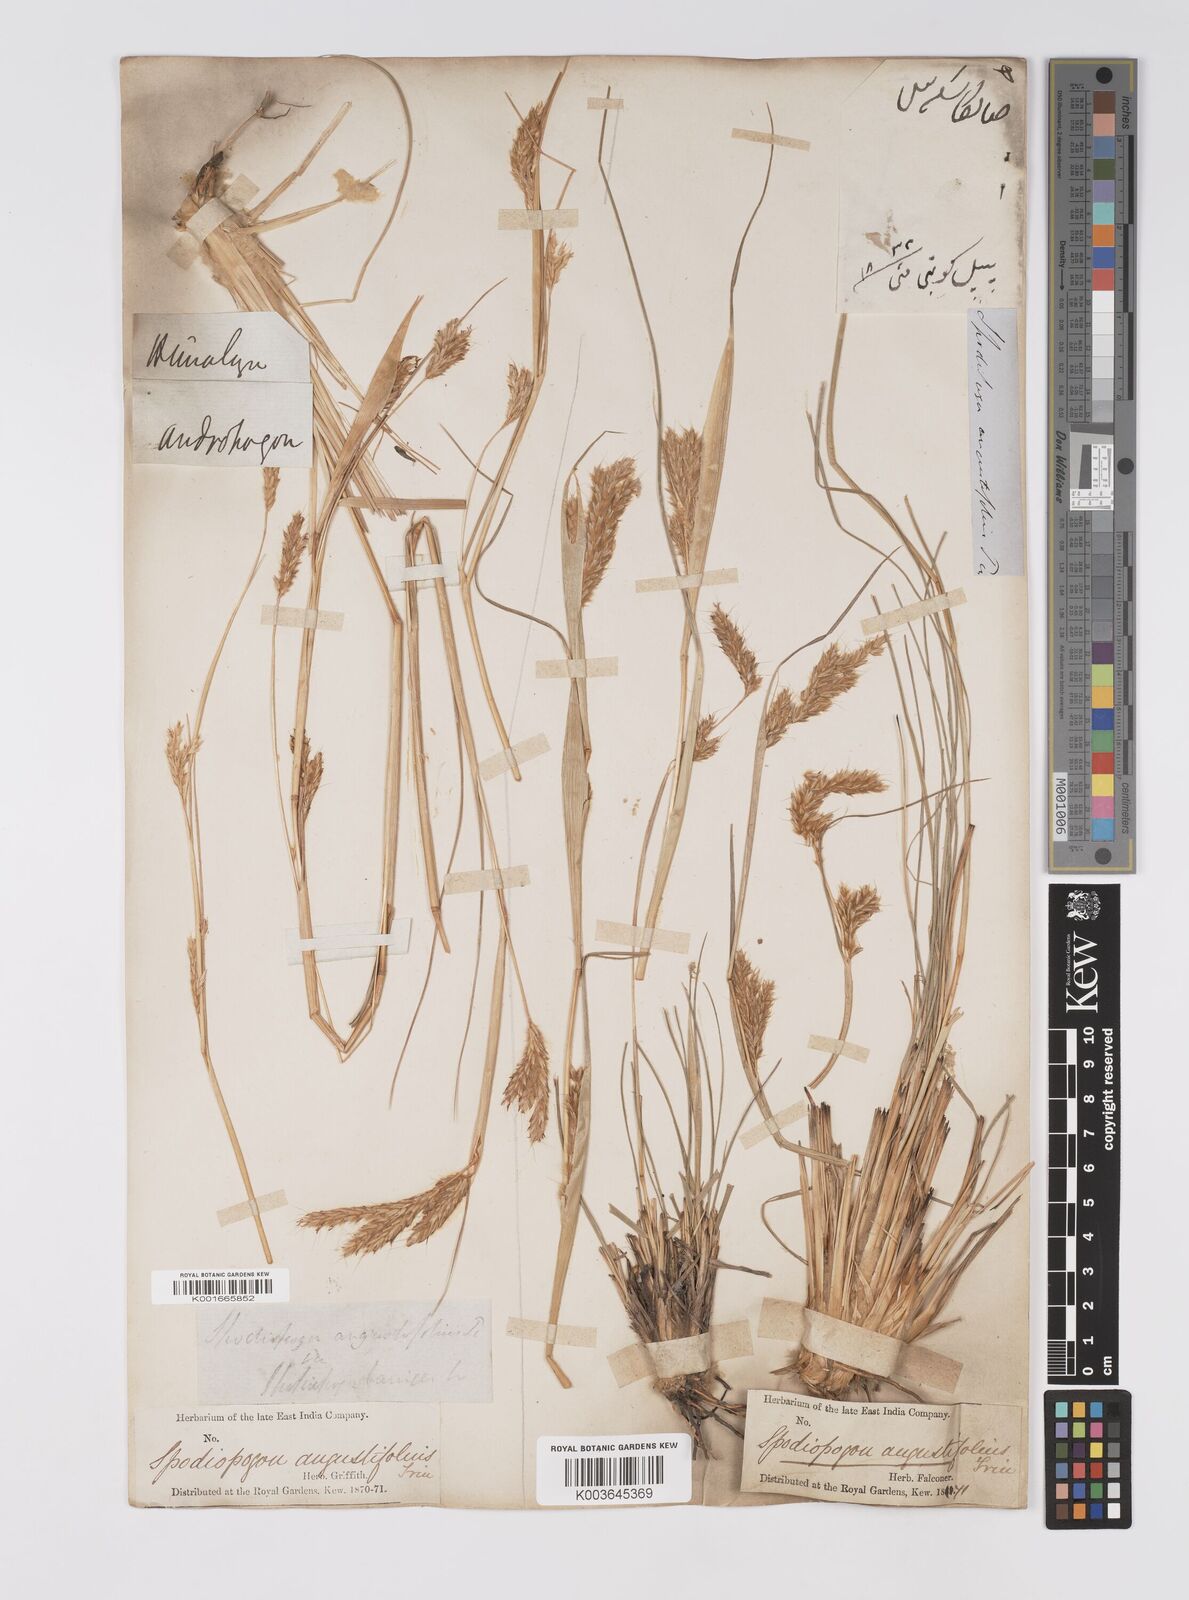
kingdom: Plantae
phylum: Tracheophyta
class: Liliopsida
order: Poales
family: Poaceae
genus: Eulaliopsis
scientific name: Eulaliopsis binata
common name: Baib grass
